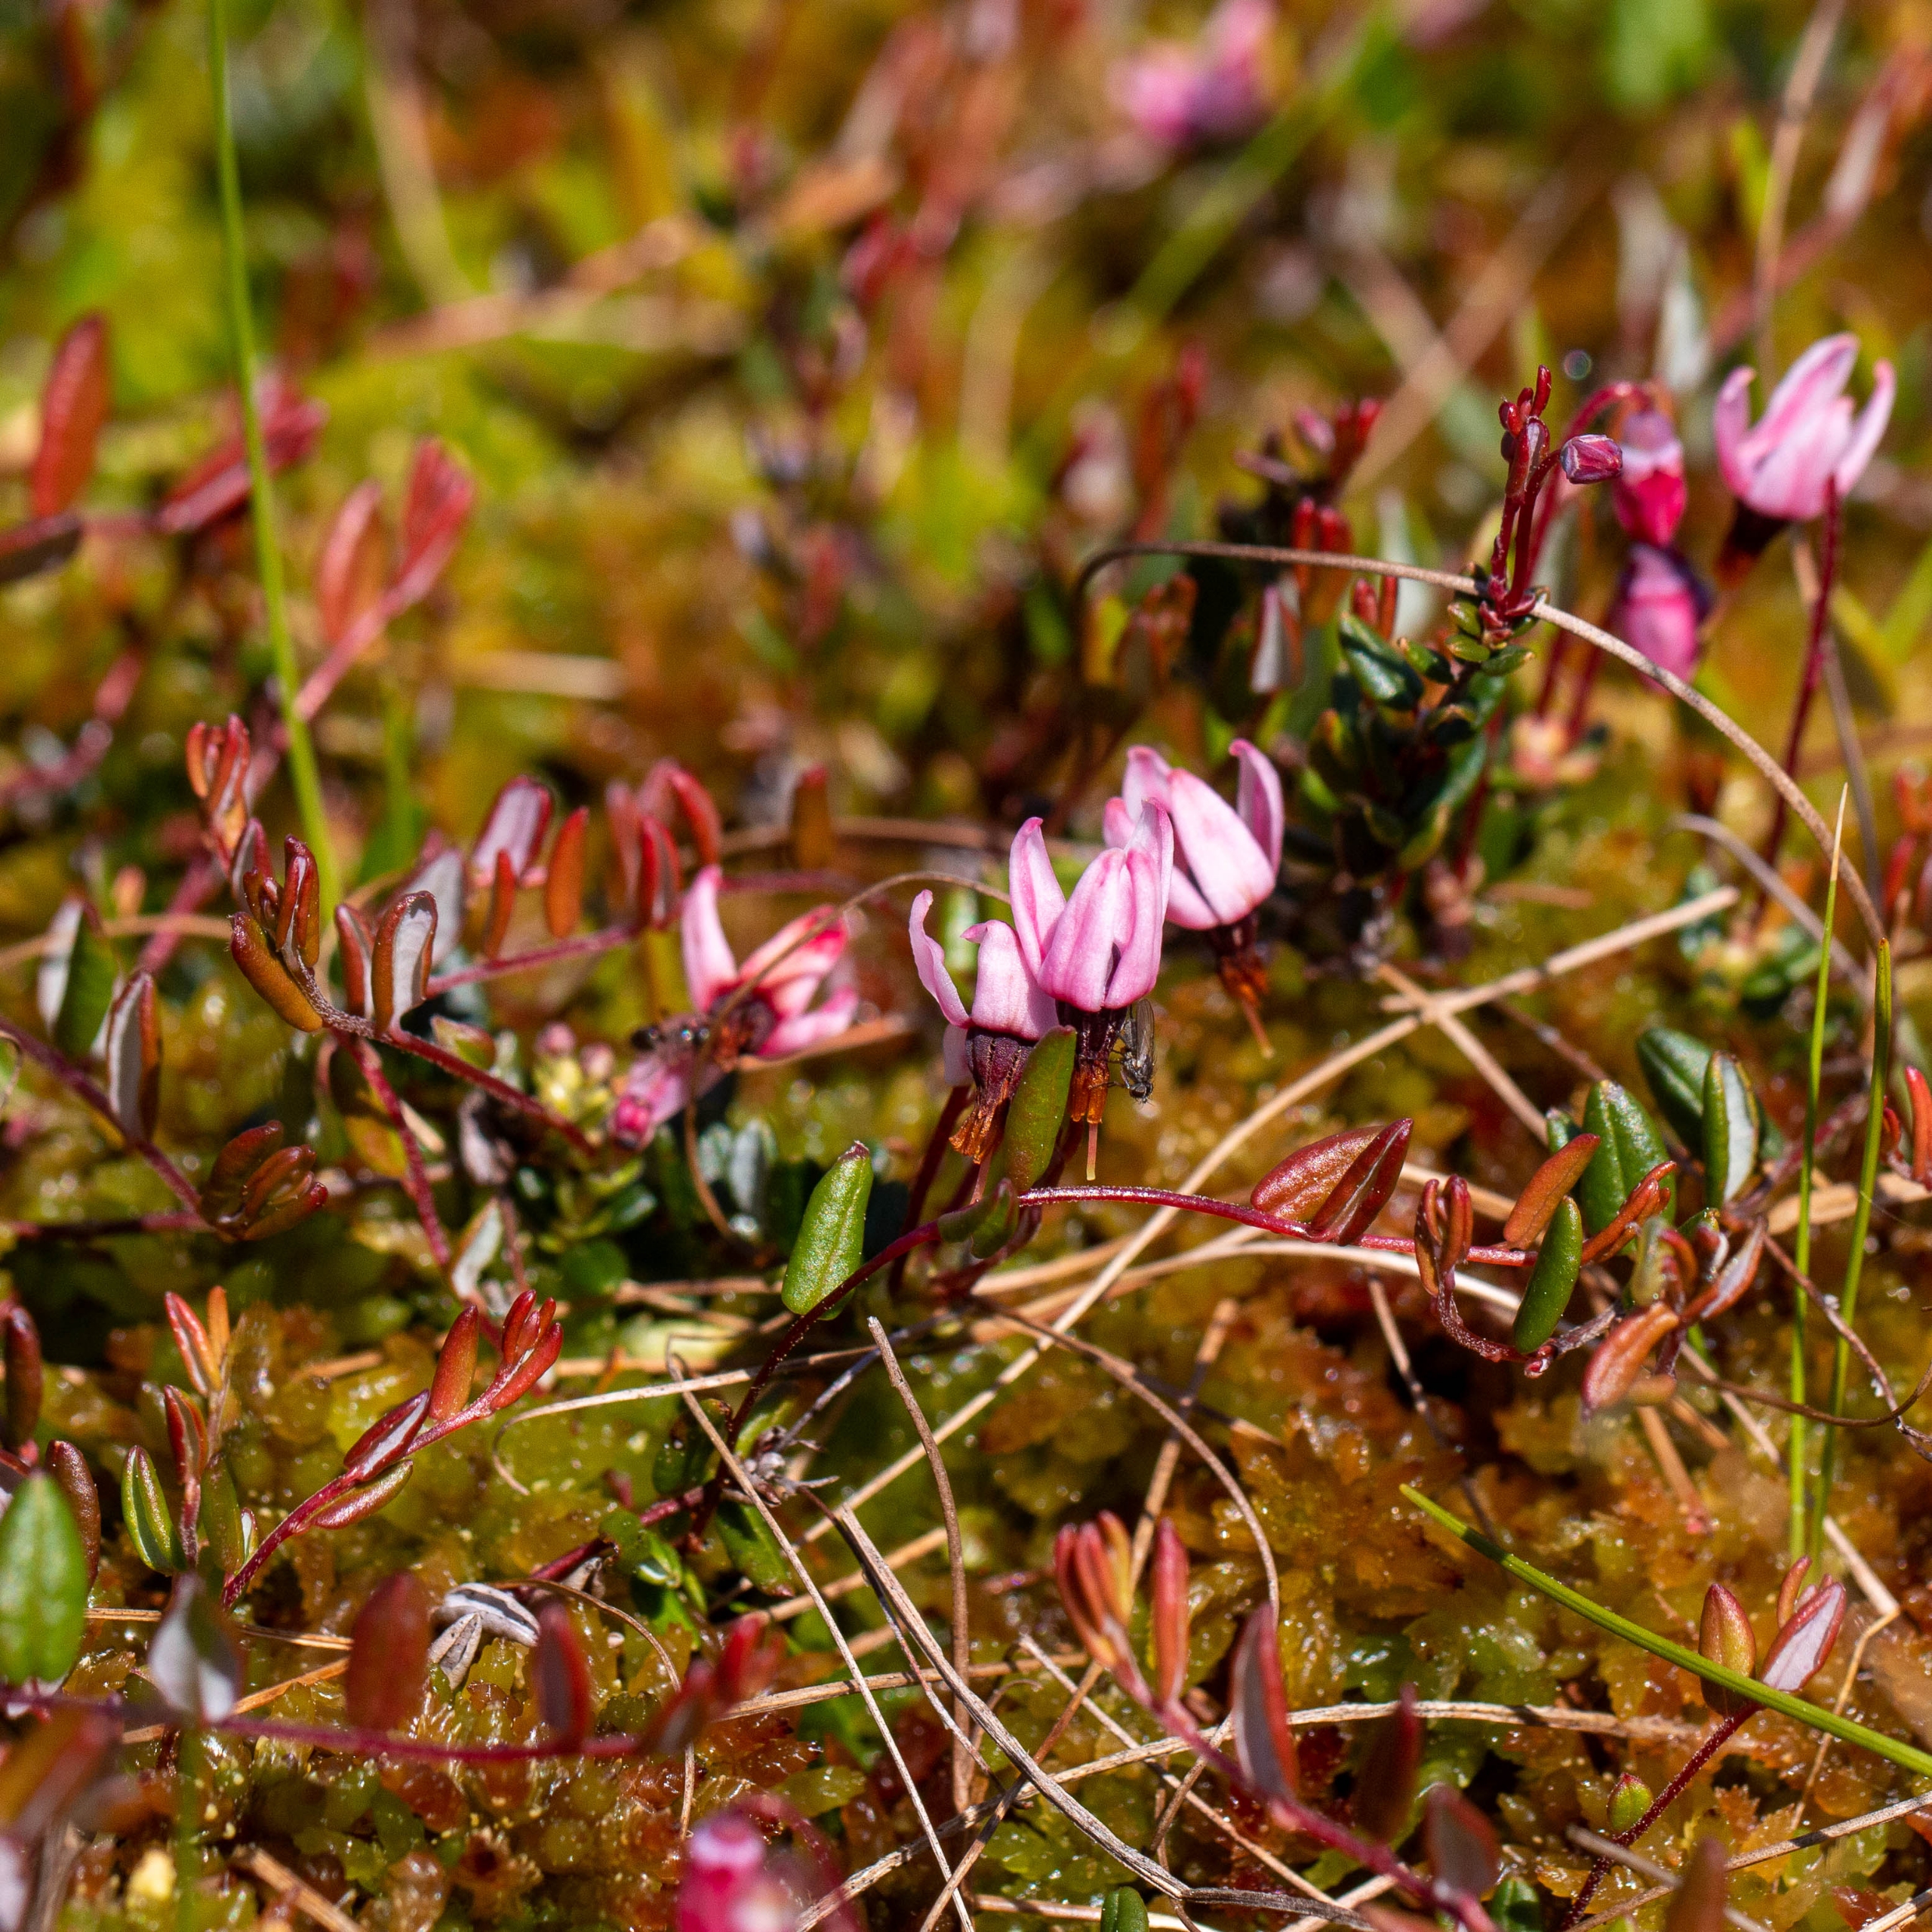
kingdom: Plantae
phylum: Tracheophyta
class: Magnoliopsida
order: Ericales
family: Ericaceae
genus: Vaccinium
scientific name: Vaccinium oxycoccos
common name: Tranebær
